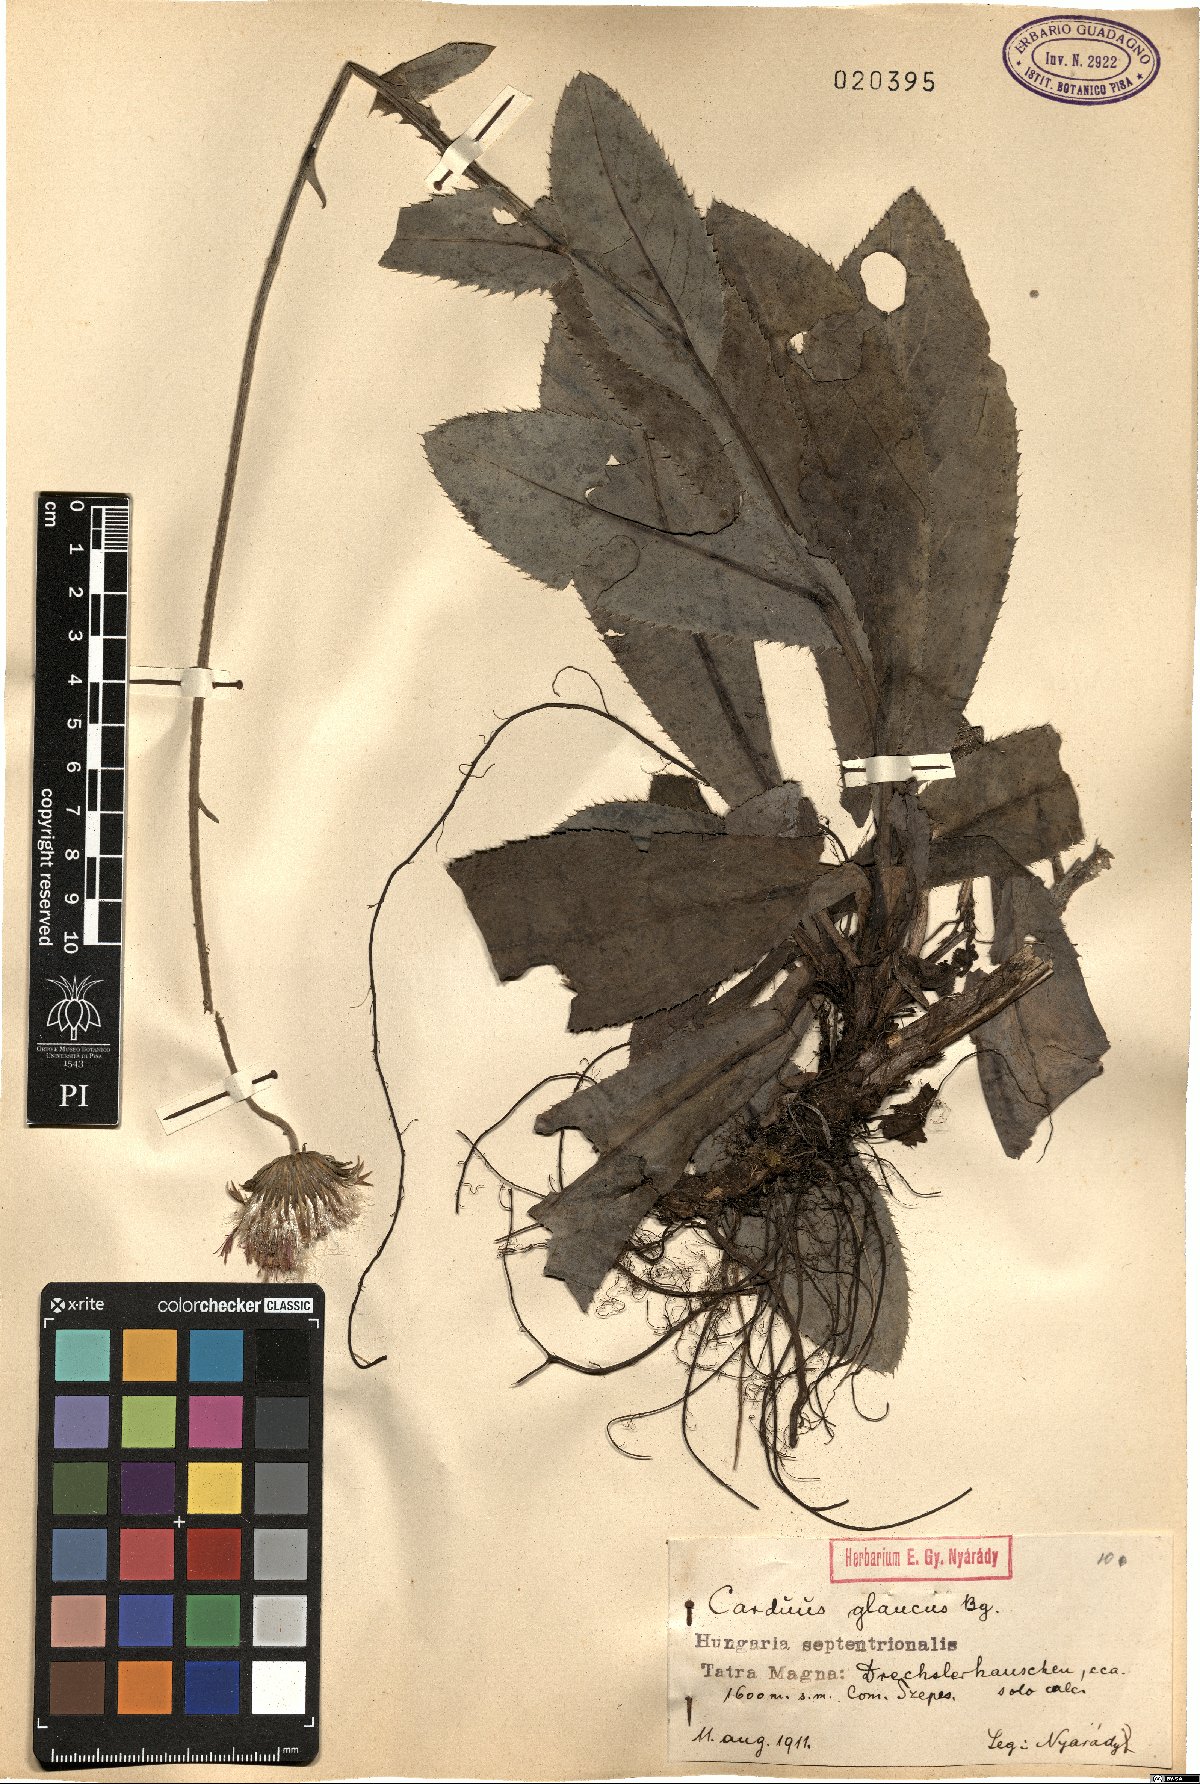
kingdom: Plantae
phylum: Tracheophyta
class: Magnoliopsida
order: Asterales
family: Asteraceae
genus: Carduus
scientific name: Carduus defloratus
